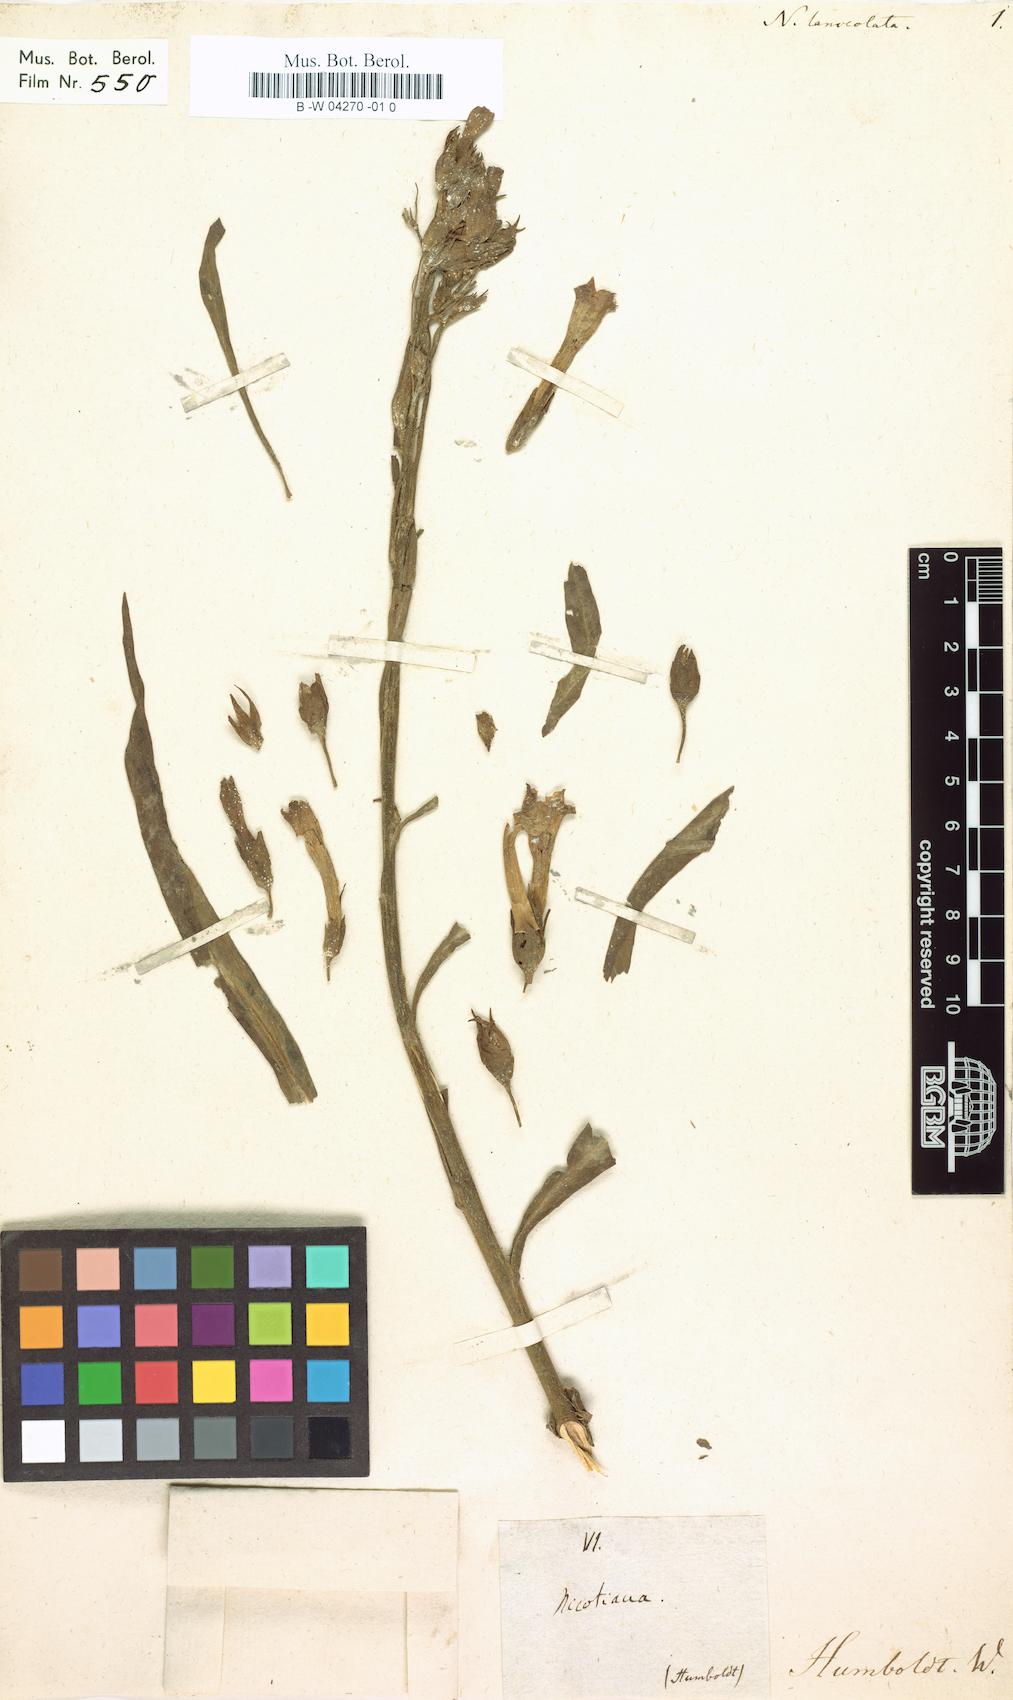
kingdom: Plantae
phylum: Tracheophyta
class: Magnoliopsida
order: Solanales
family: Solanaceae
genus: Nicotiana
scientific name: Nicotiana
